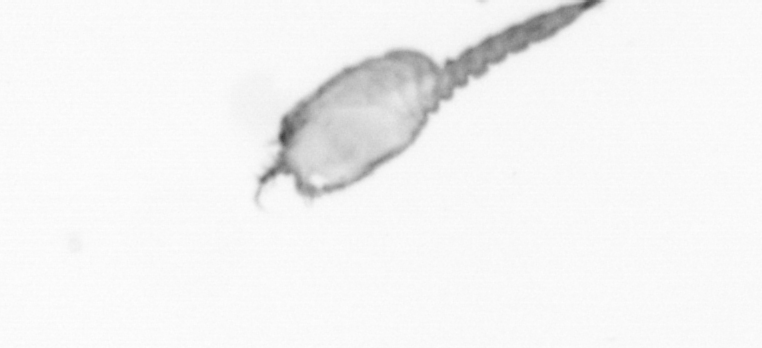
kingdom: Animalia
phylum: Arthropoda
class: Copepoda
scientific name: Copepoda
